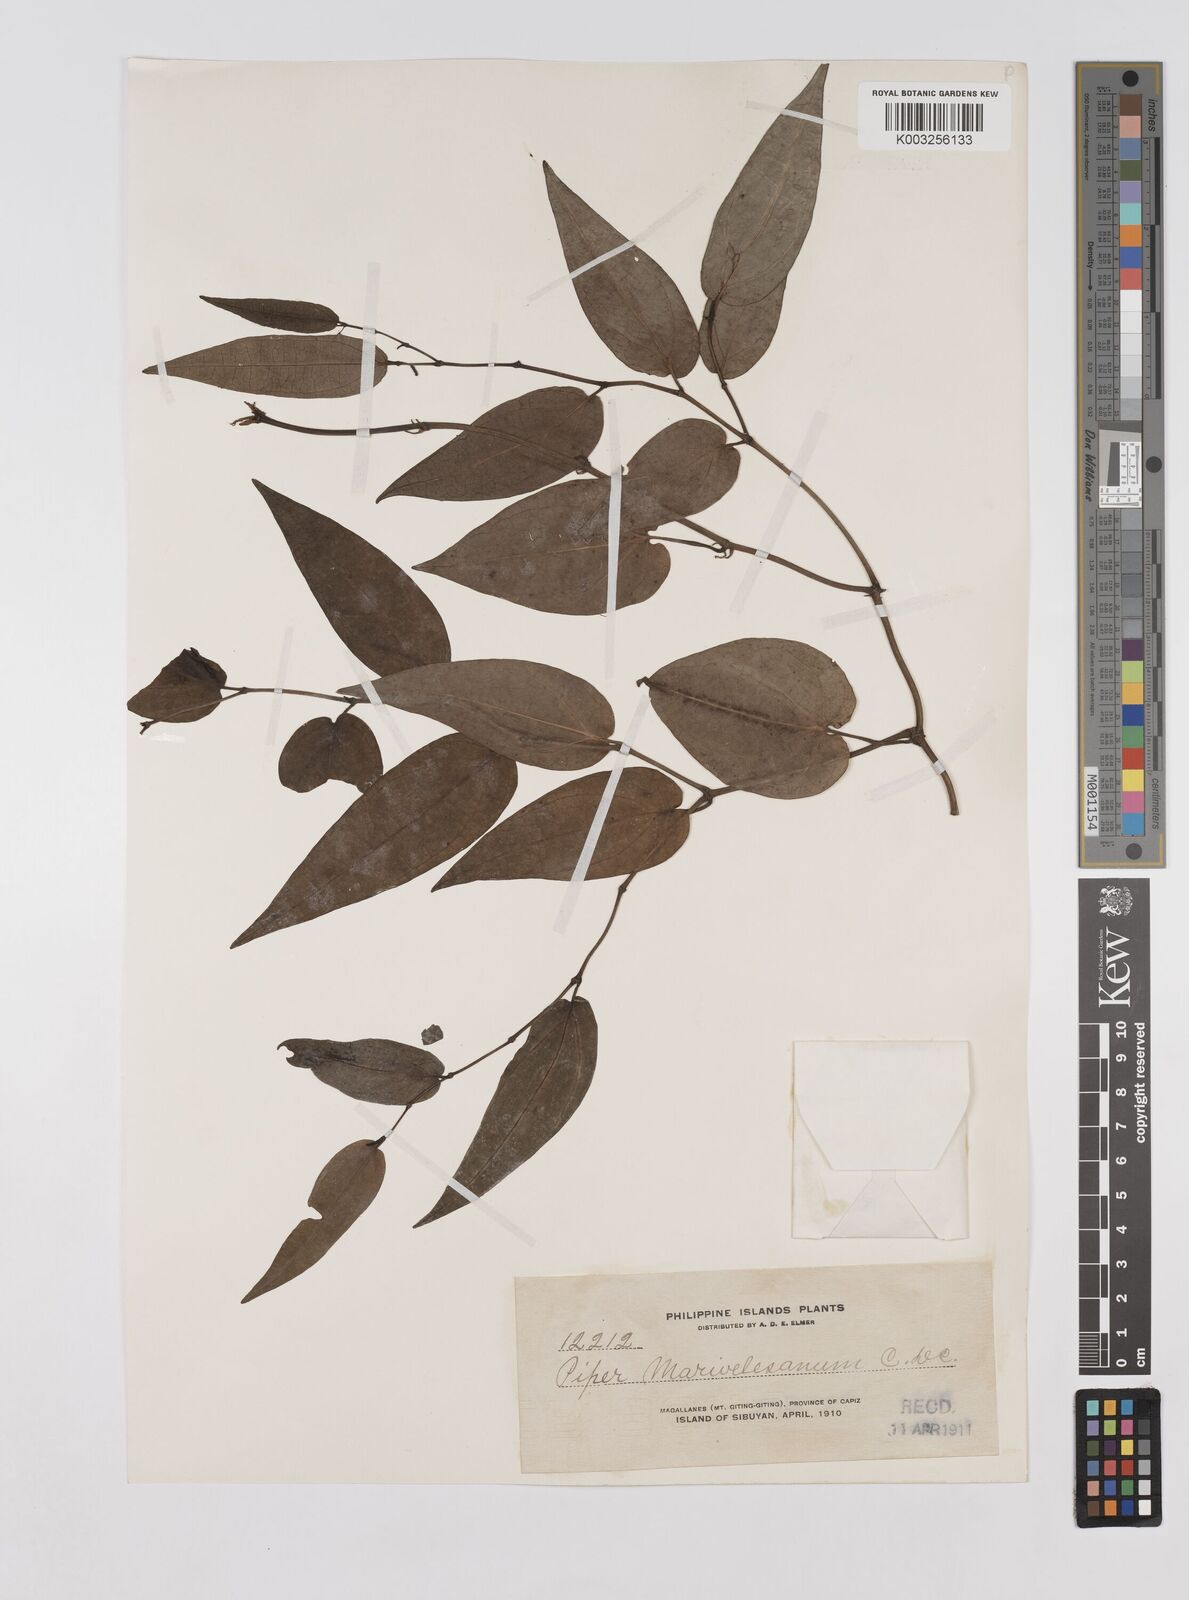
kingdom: Plantae
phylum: Tracheophyta
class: Magnoliopsida
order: Piperales
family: Piperaceae
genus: Piper
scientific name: Piper lanatum
